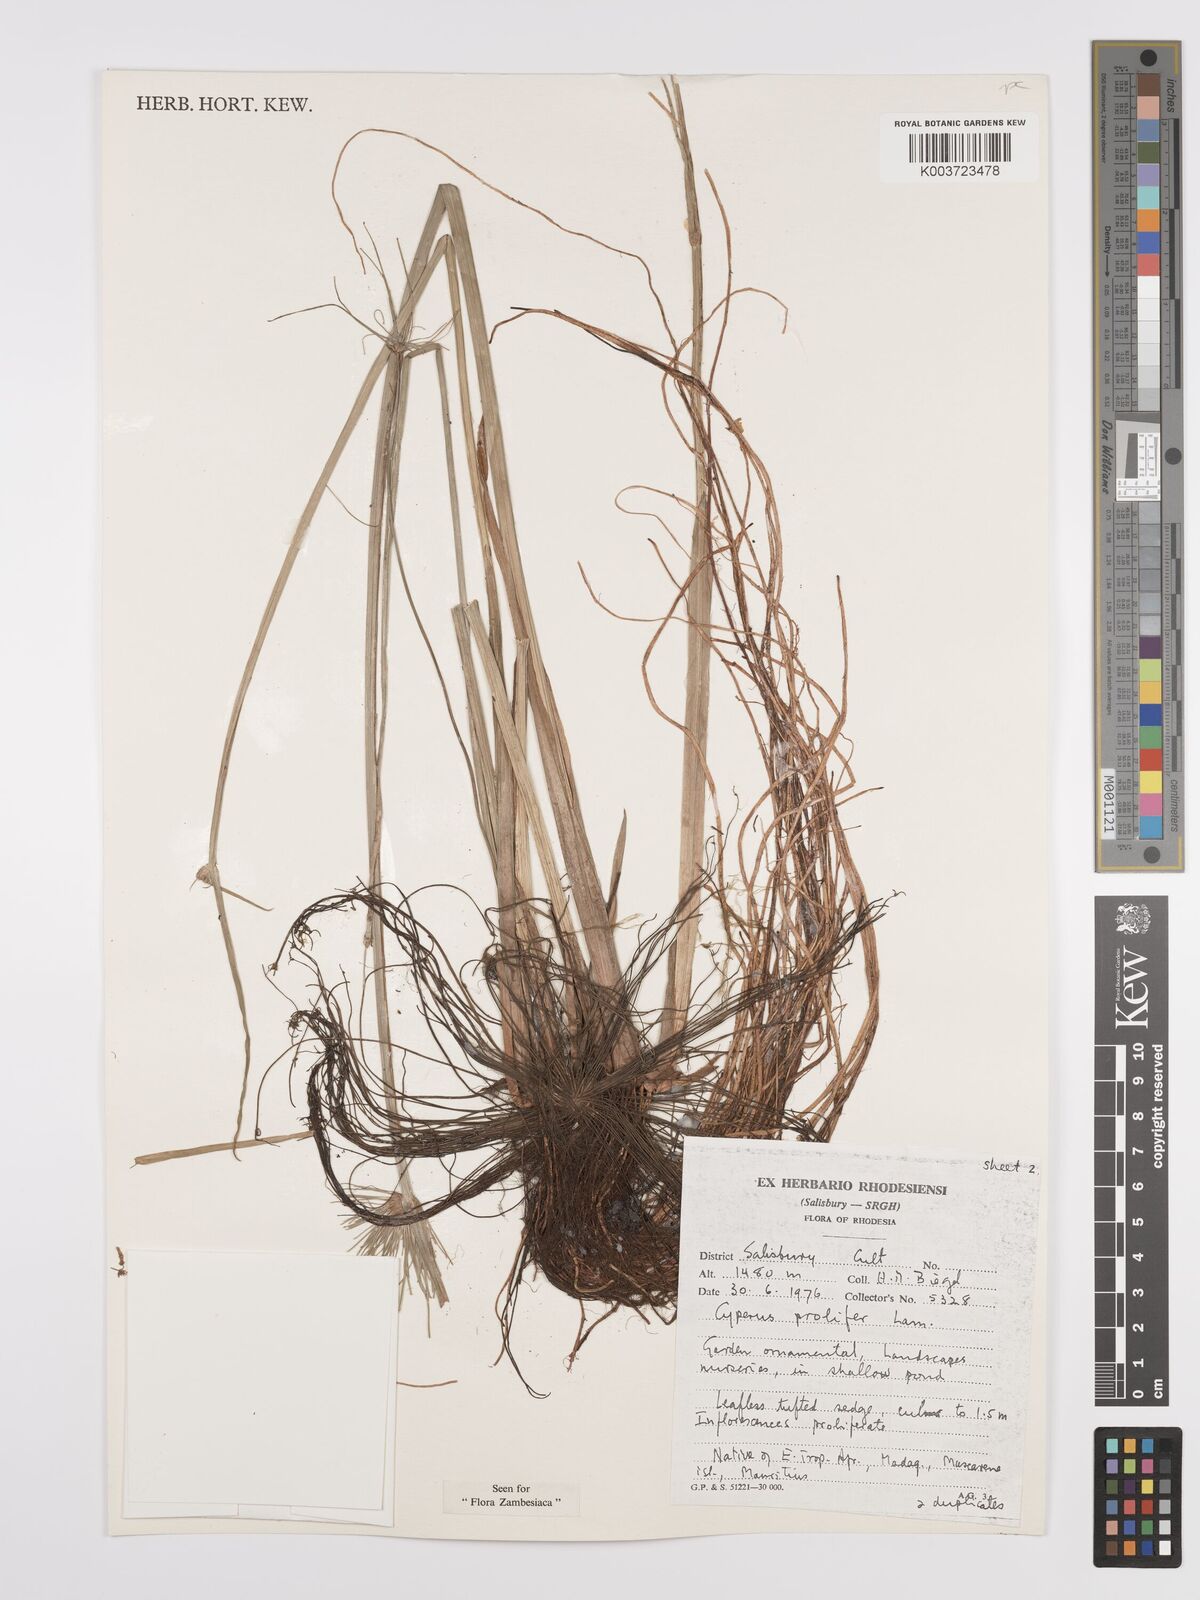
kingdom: Plantae
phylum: Tracheophyta
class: Liliopsida
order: Poales
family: Cyperaceae
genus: Cyperus
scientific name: Cyperus prolifer
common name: Miniature flatsedge
